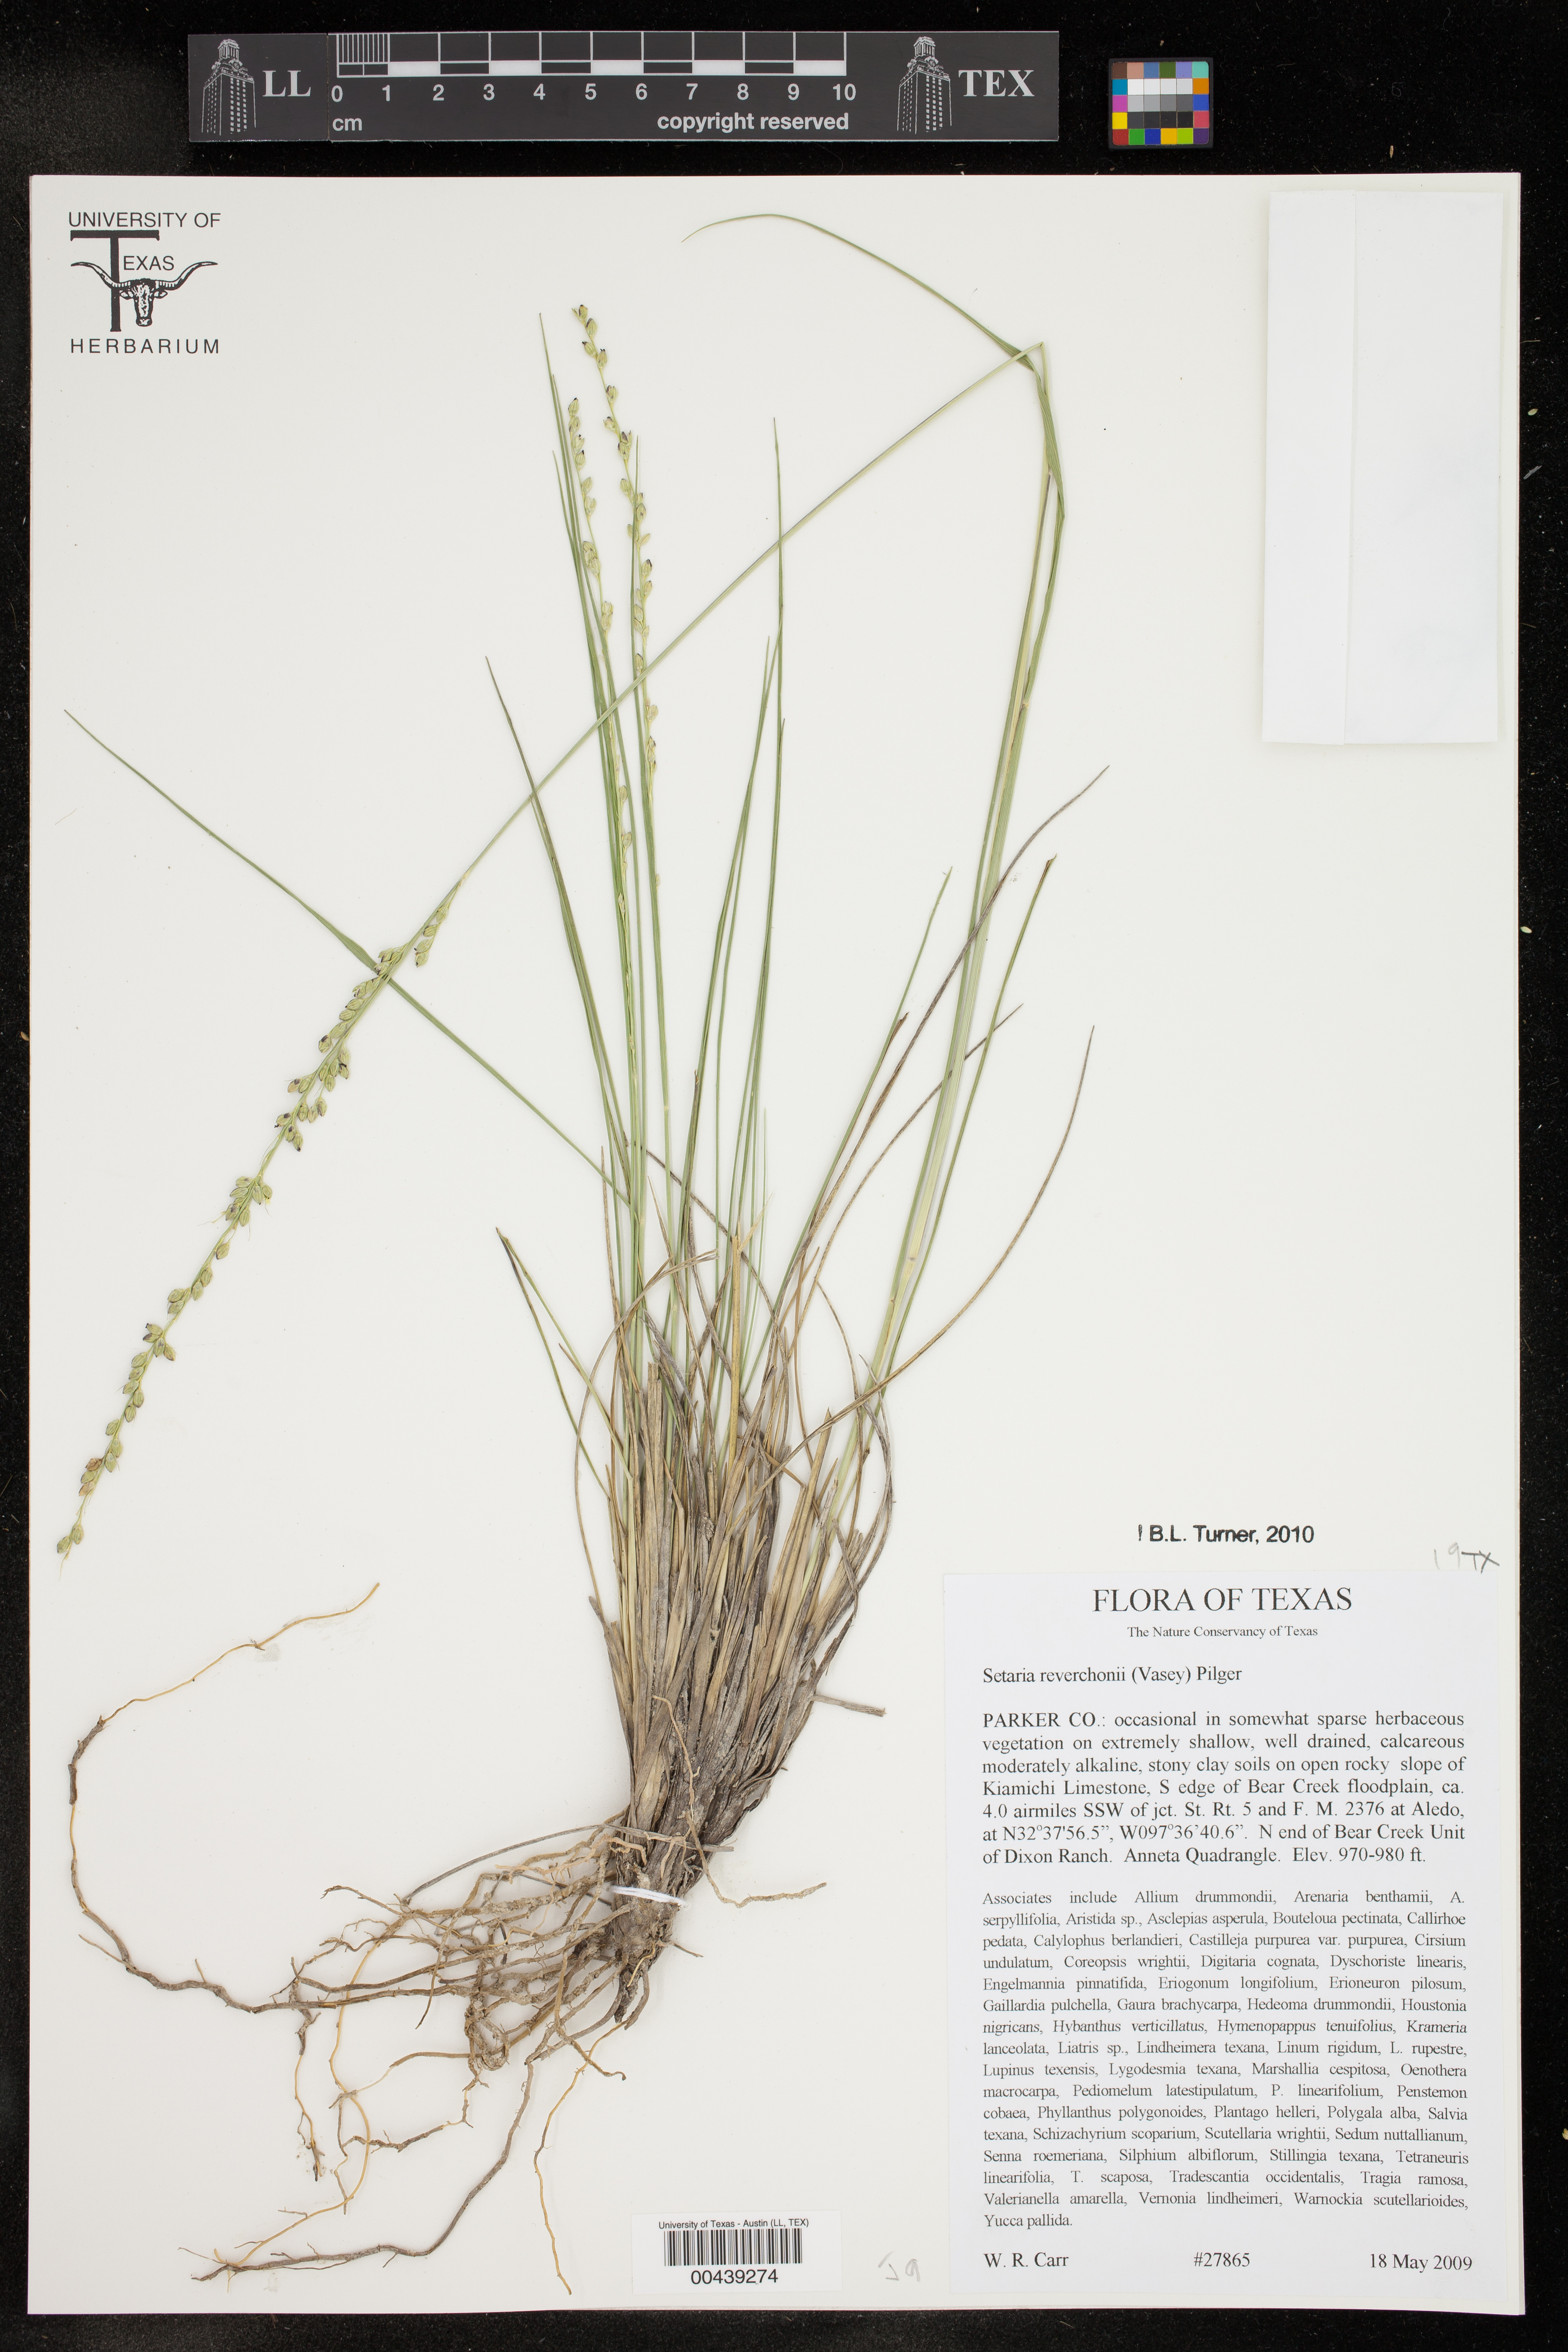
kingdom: Plantae
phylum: Tracheophyta
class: Liliopsida
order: Poales
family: Poaceae
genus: Setaria
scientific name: Setaria reverchonii
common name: Reverchon's bristle grass
